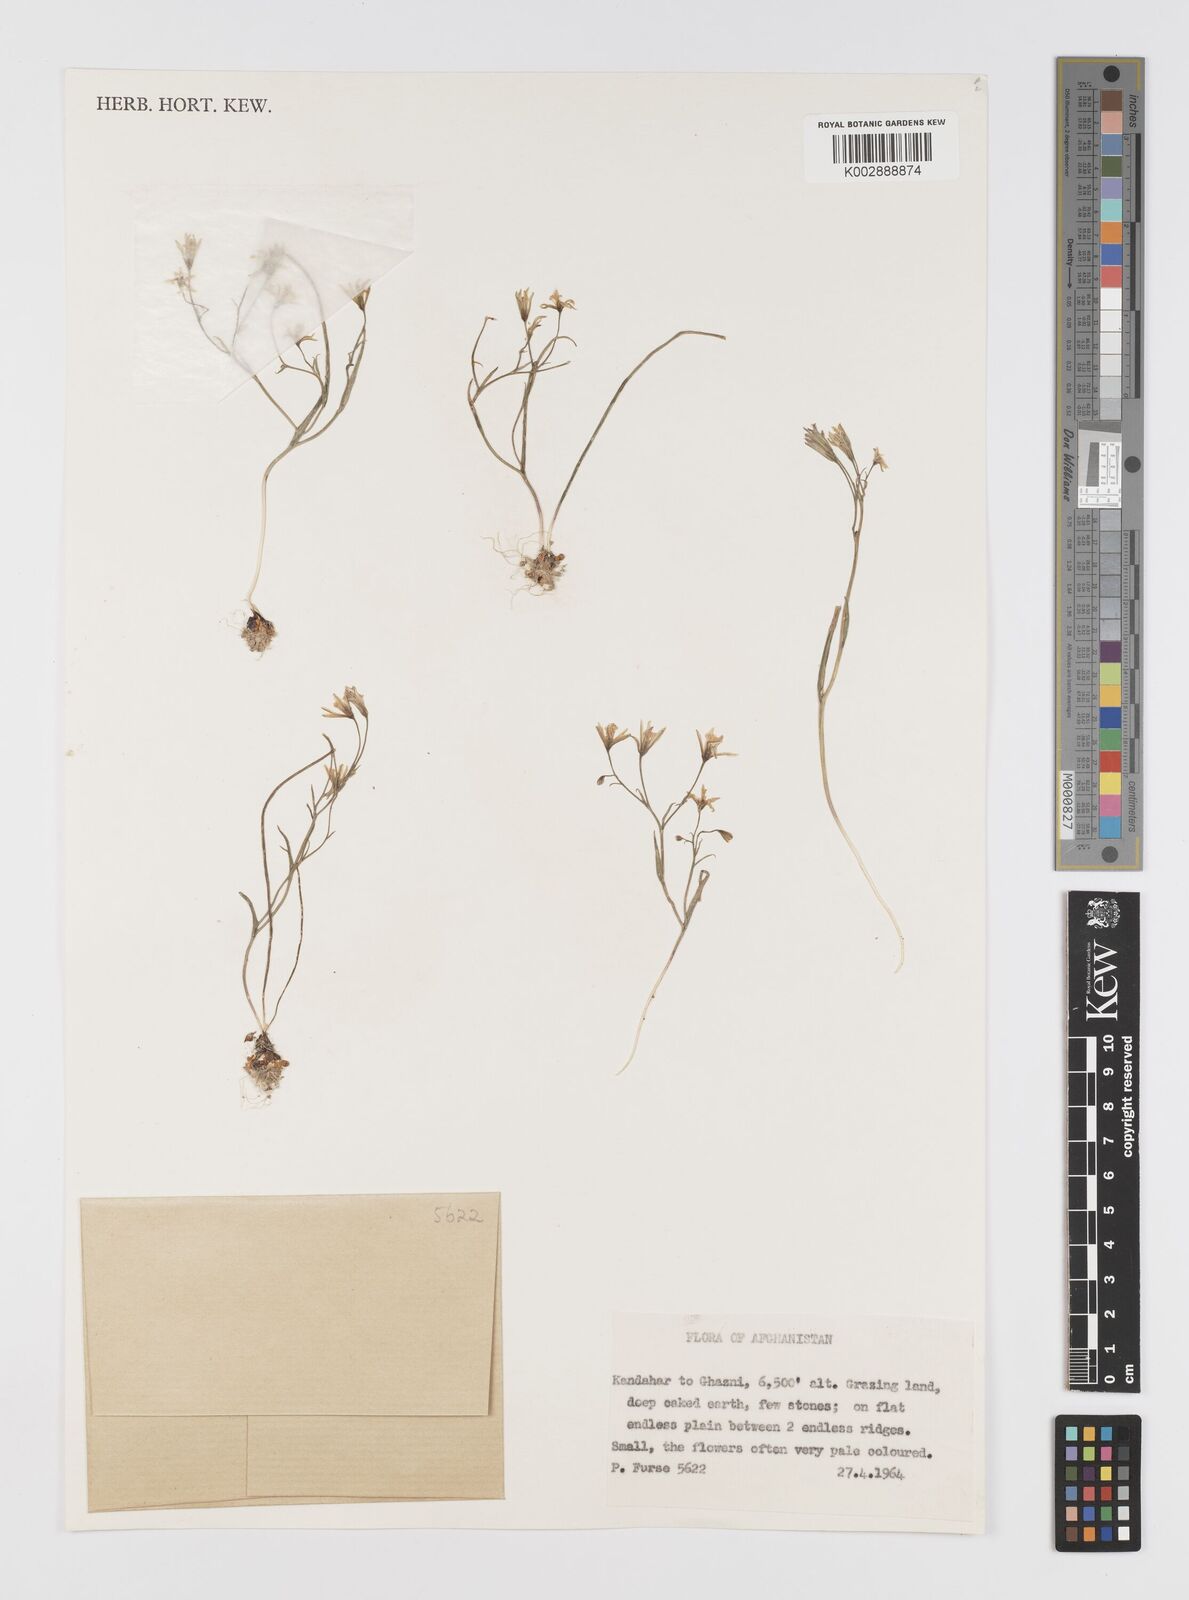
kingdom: Plantae
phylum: Tracheophyta
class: Liliopsida
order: Liliales
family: Liliaceae
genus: Gagea
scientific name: Gagea
